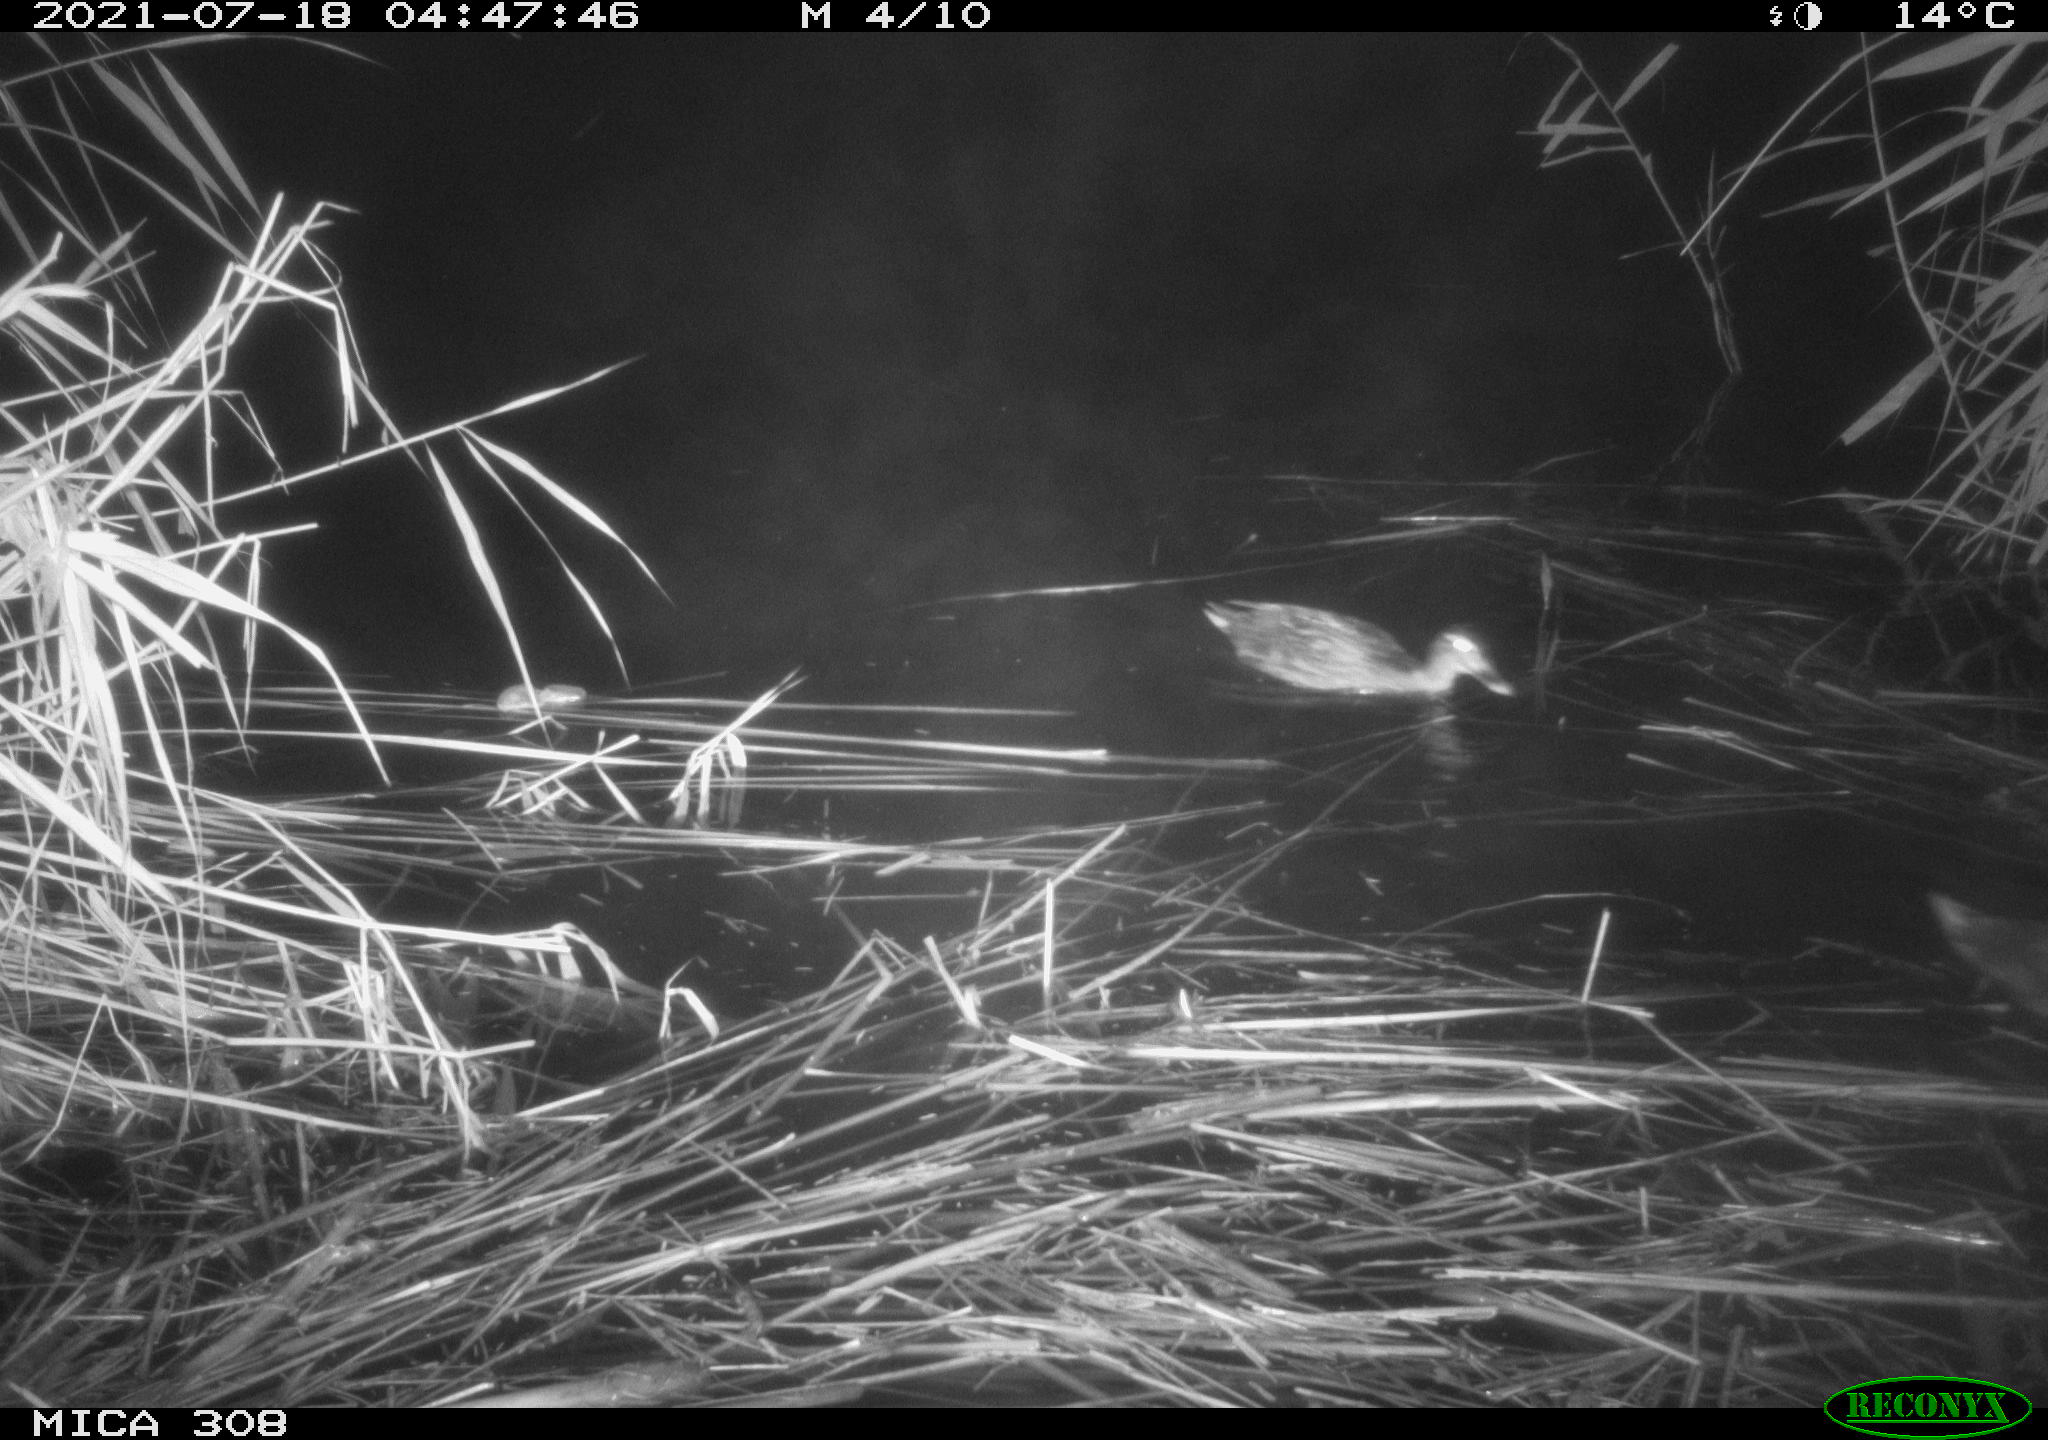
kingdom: Animalia
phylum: Chordata
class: Aves
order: Anseriformes
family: Anatidae
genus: Anas
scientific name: Anas platyrhynchos
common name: Mallard
